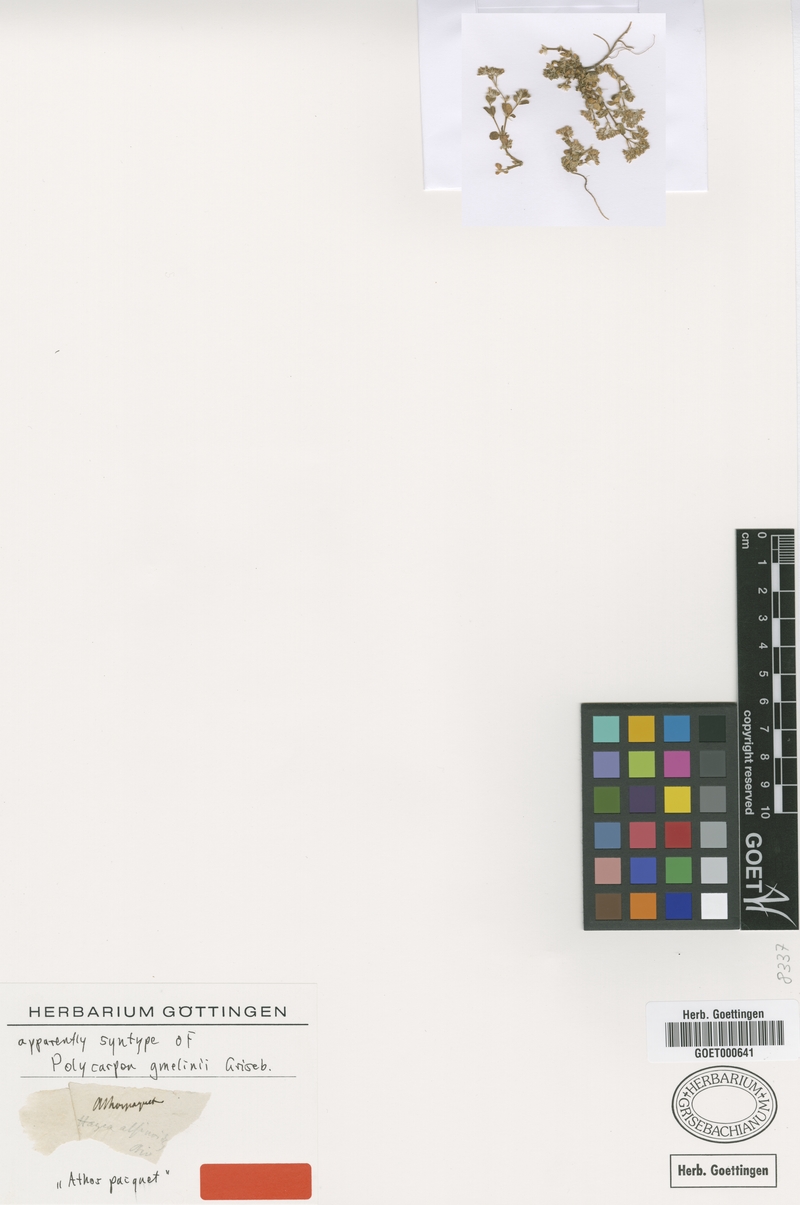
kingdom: Plantae
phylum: Tracheophyta
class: Magnoliopsida
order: Caryophyllales
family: Caryophyllaceae
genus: Polycarpon
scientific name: Polycarpon tetraphyllum
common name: Four-leaved all-seed
